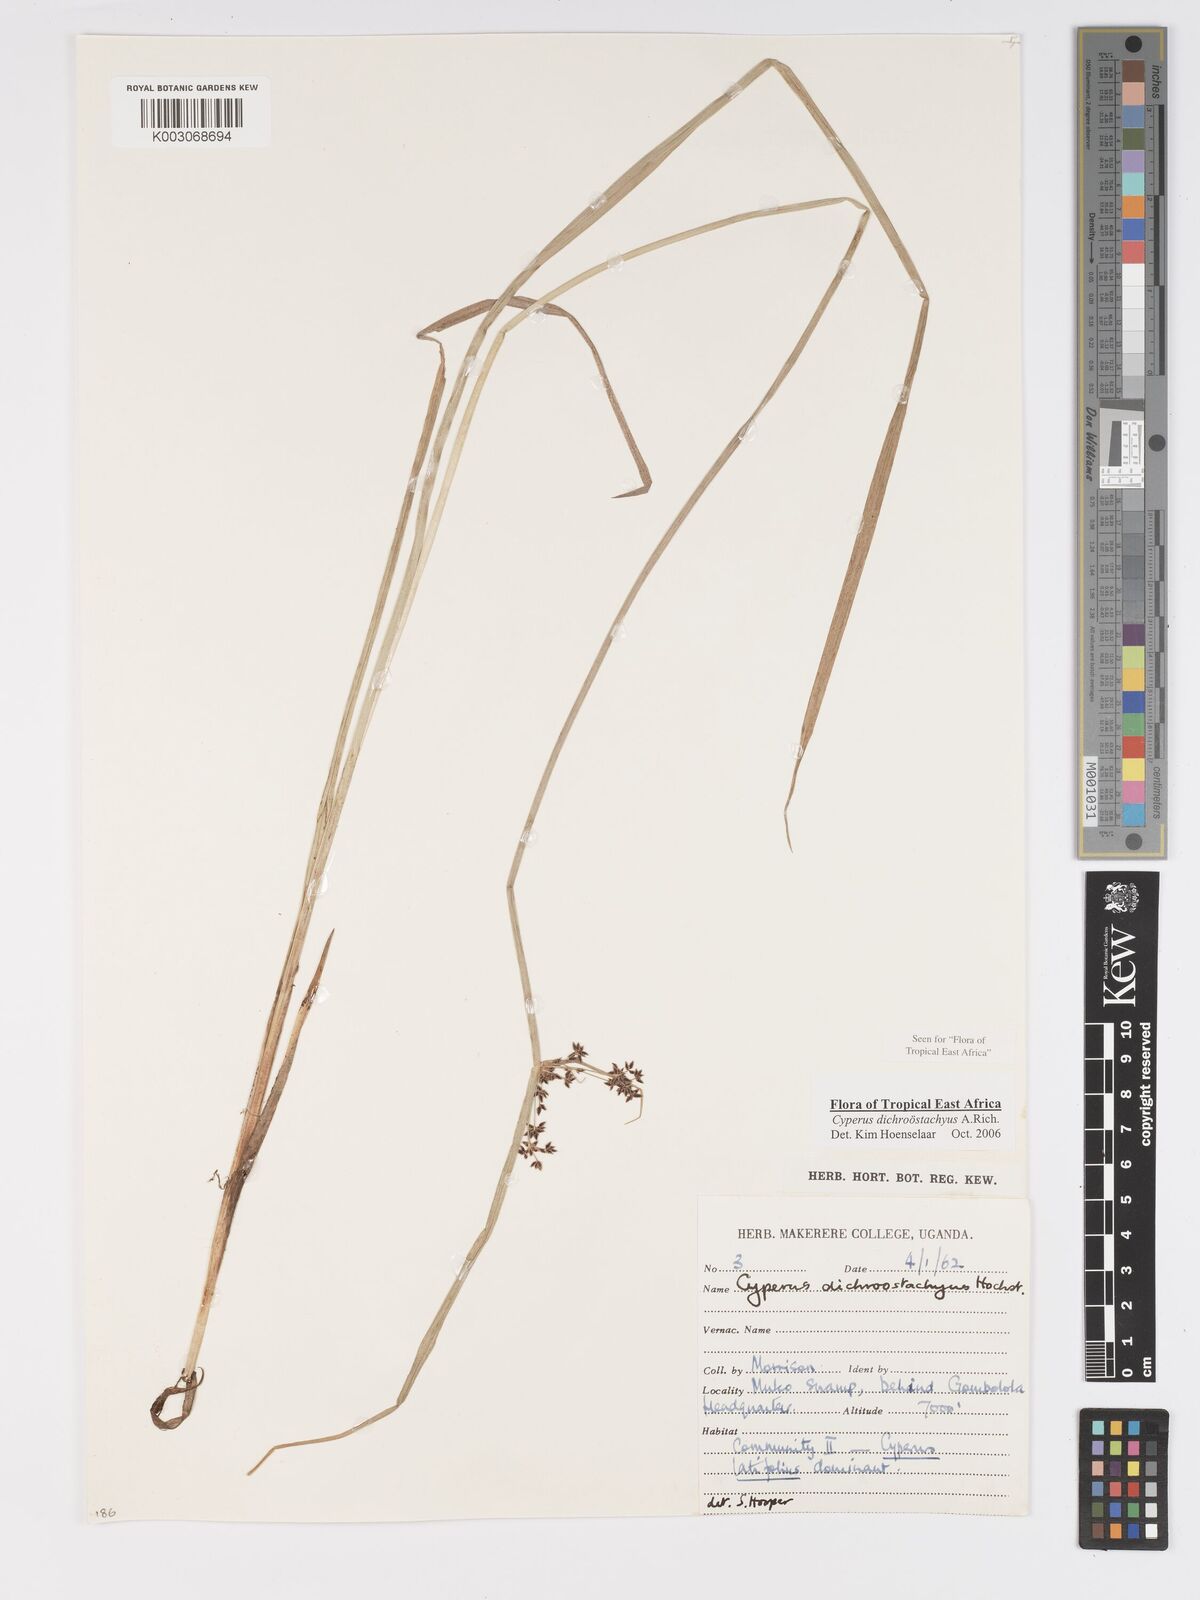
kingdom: Plantae
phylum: Tracheophyta
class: Liliopsida
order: Poales
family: Cyperaceae
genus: Cyperus
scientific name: Cyperus dichrostachyus
